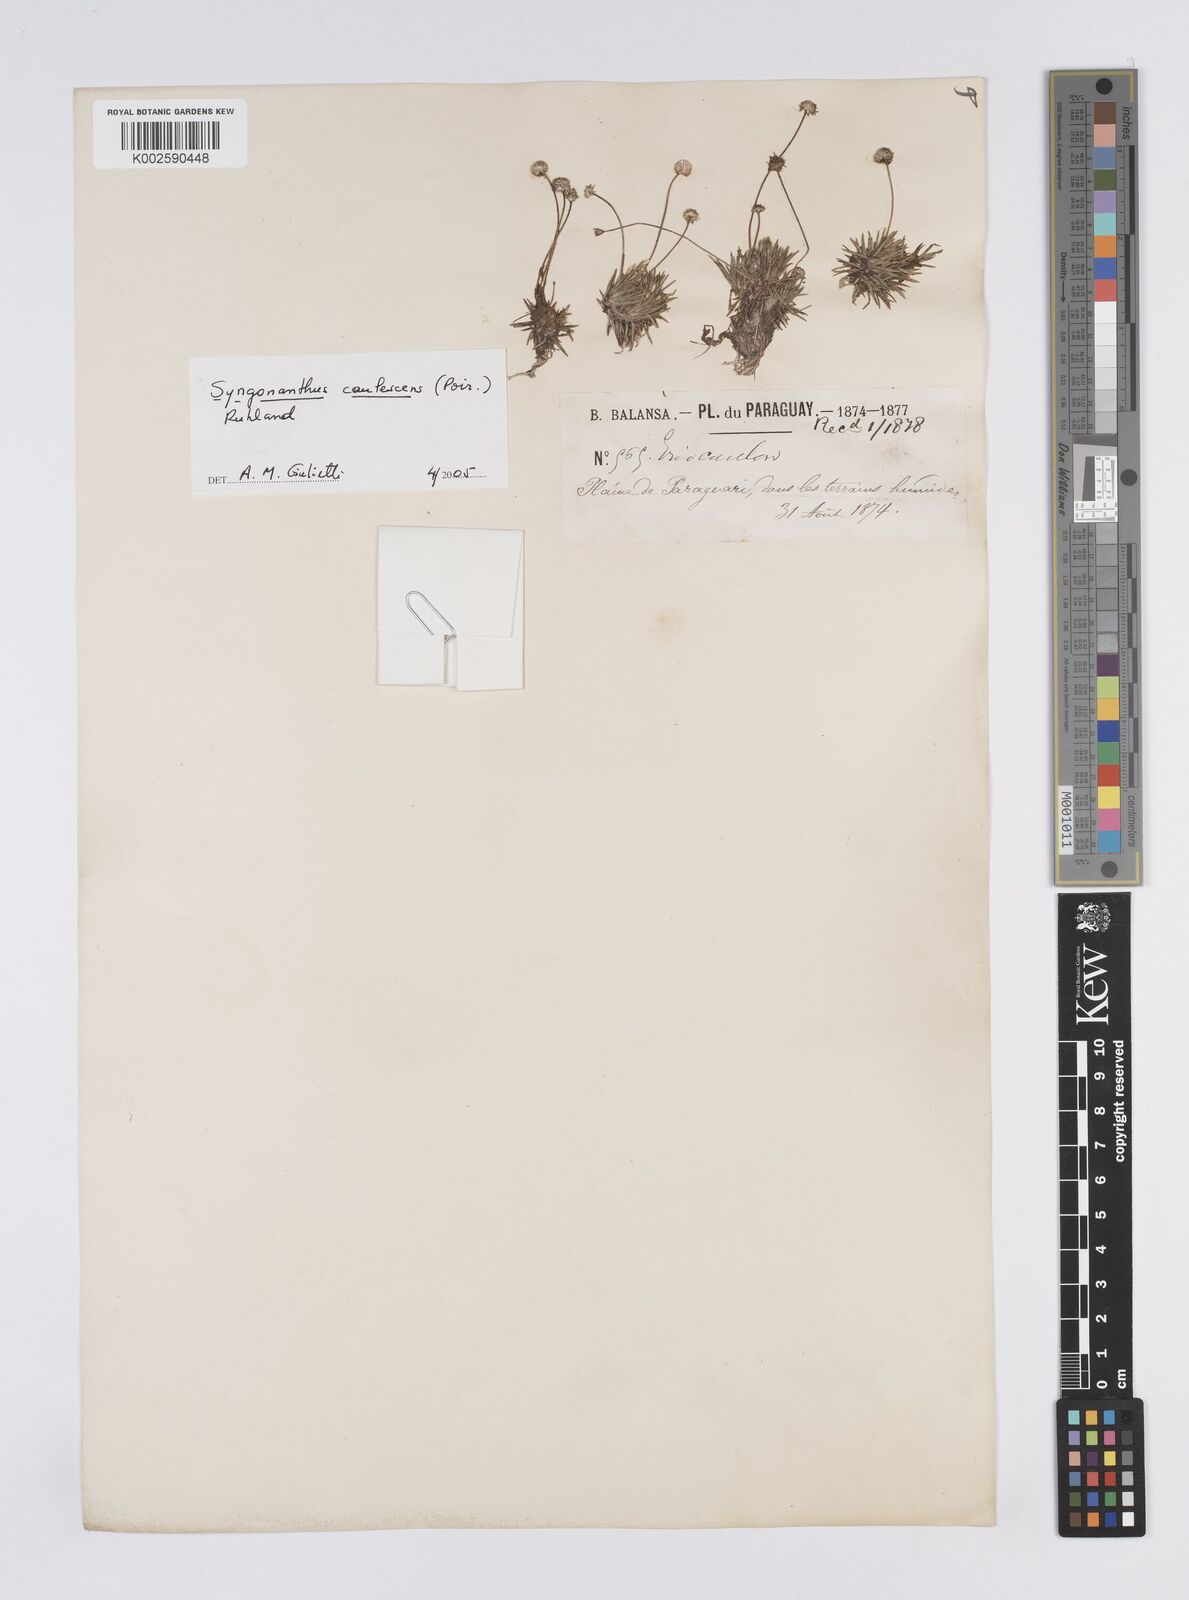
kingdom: Plantae
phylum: Tracheophyta
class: Liliopsida
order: Poales
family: Eriocaulaceae
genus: Syngonanthus
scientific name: Syngonanthus caulescens
